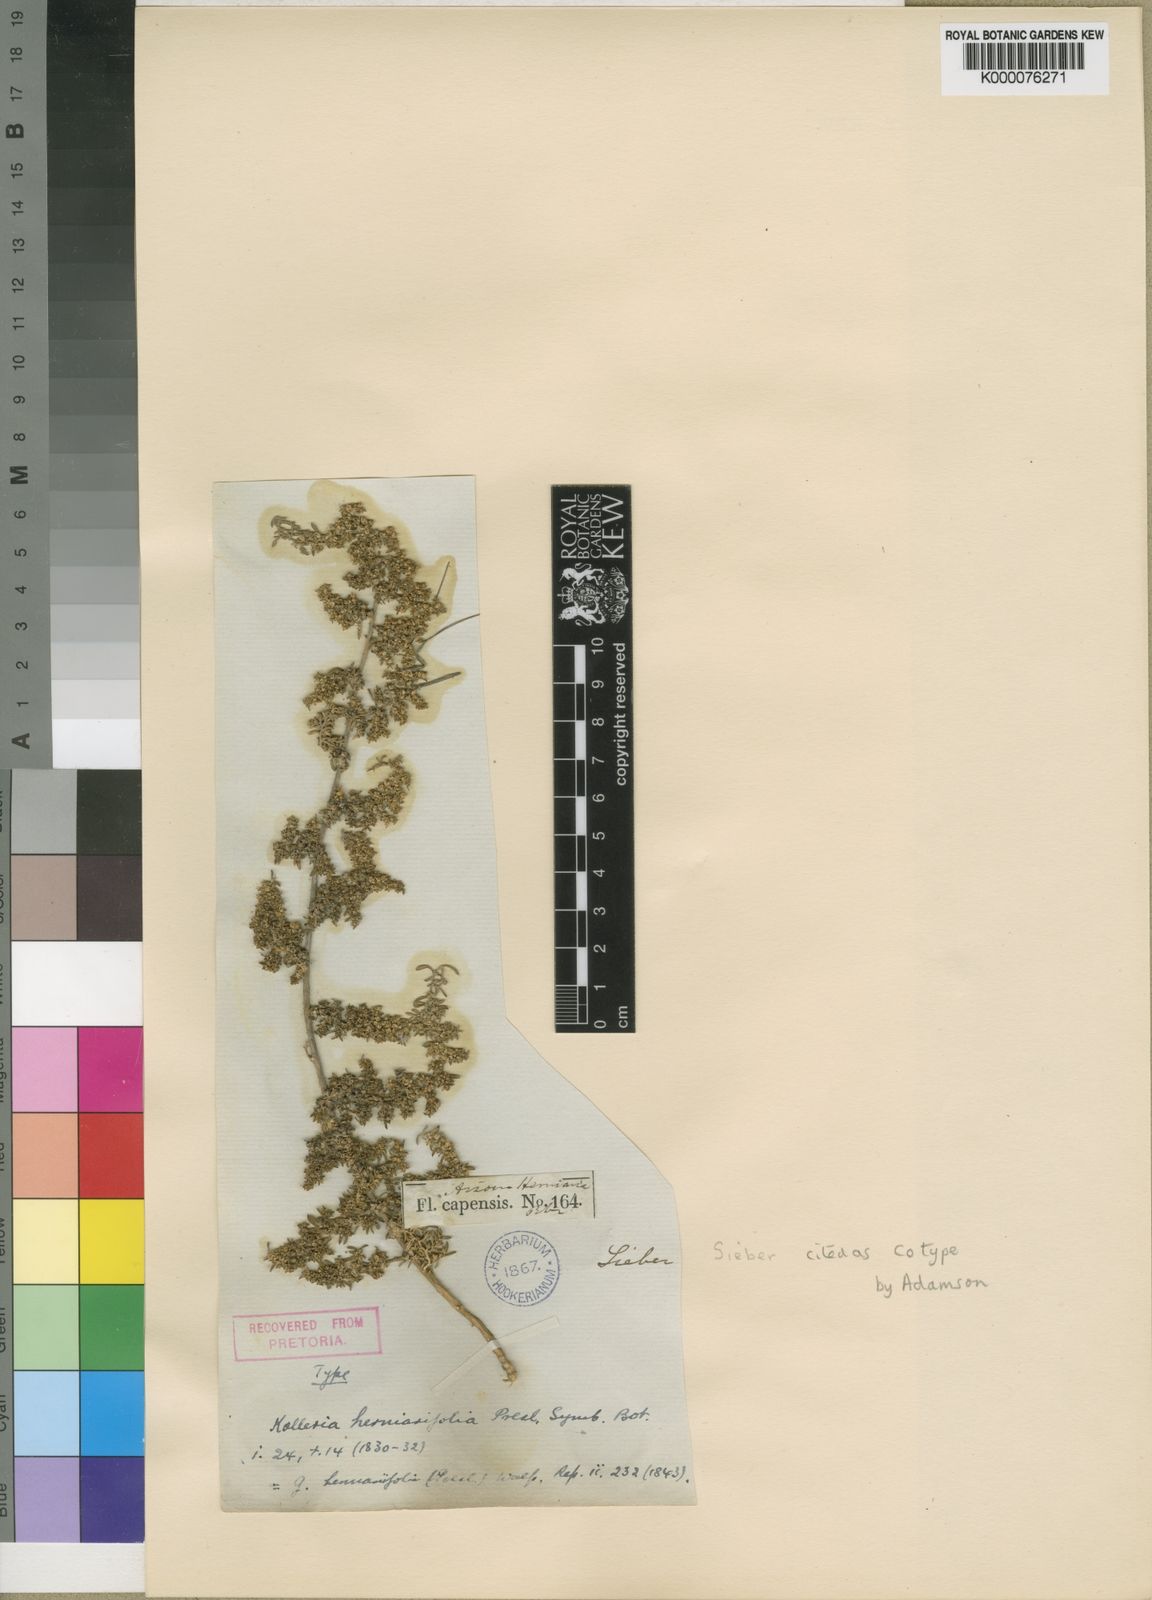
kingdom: Animalia
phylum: Chordata
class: Aves
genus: Galenia
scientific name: Galenia
